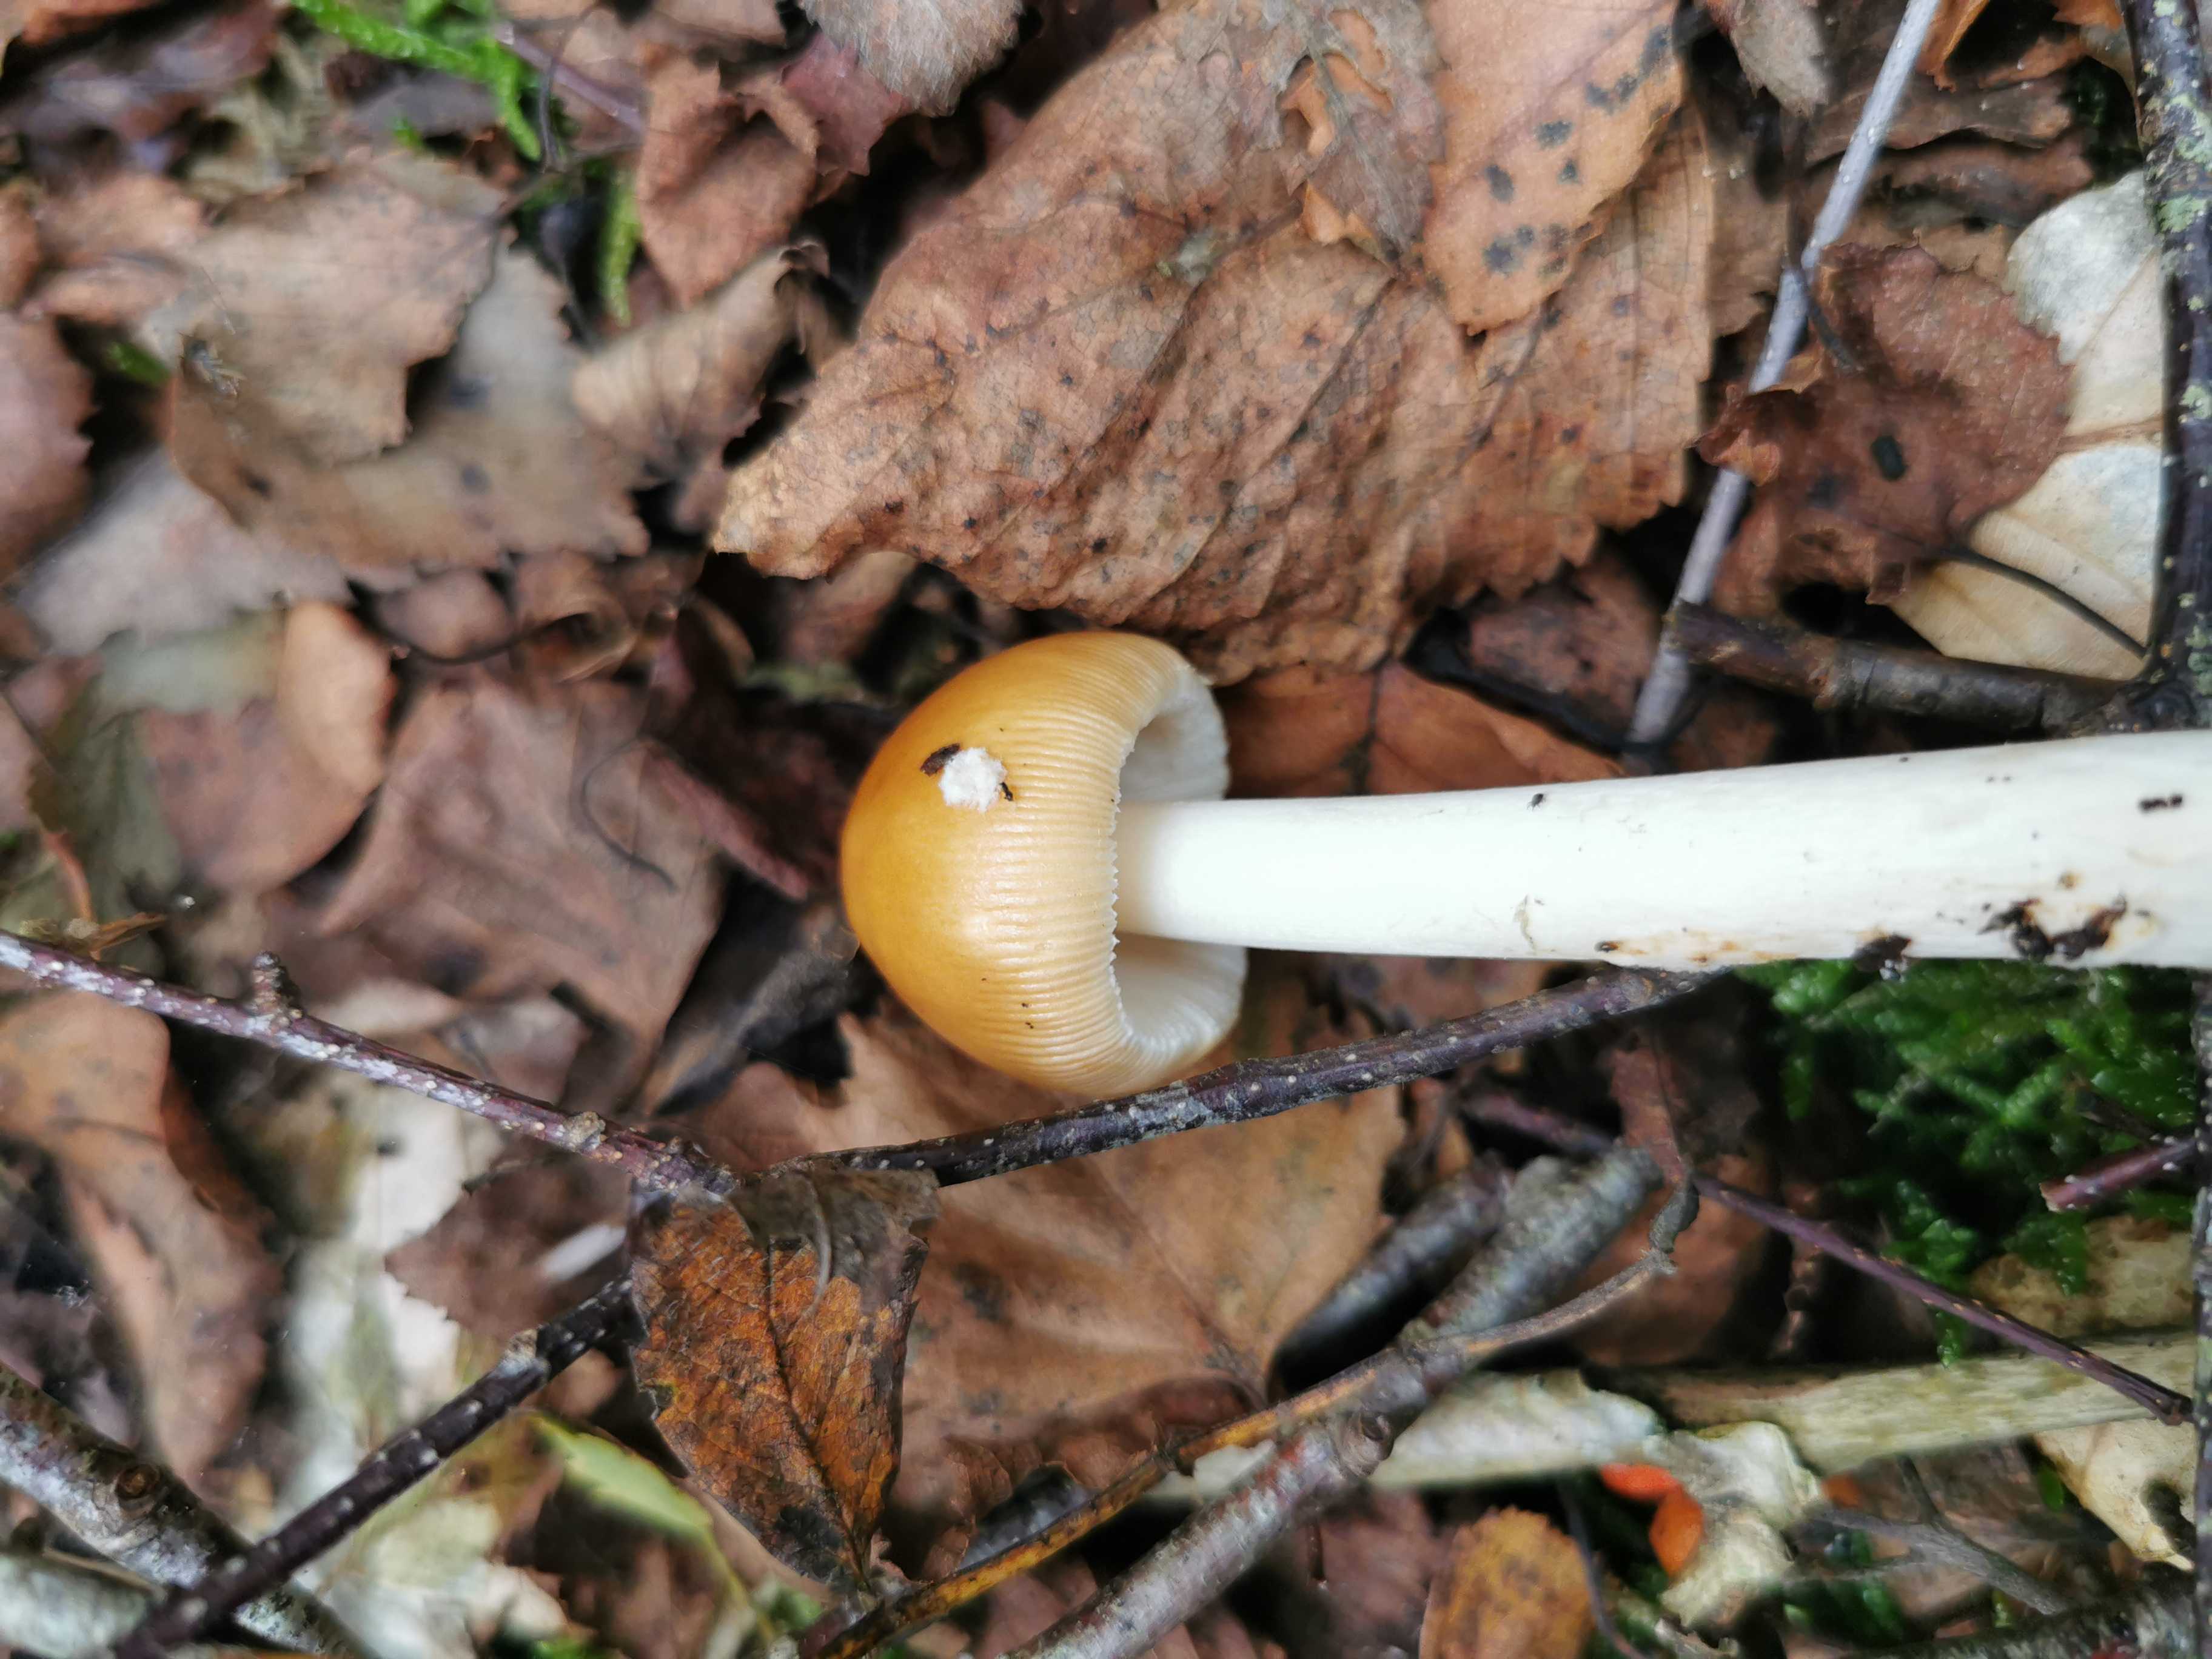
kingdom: Fungi
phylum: Basidiomycota
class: Agaricomycetes
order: Agaricales
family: Amanitaceae
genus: Amanita
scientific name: Amanita fulva
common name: brun kam-fluesvamp
